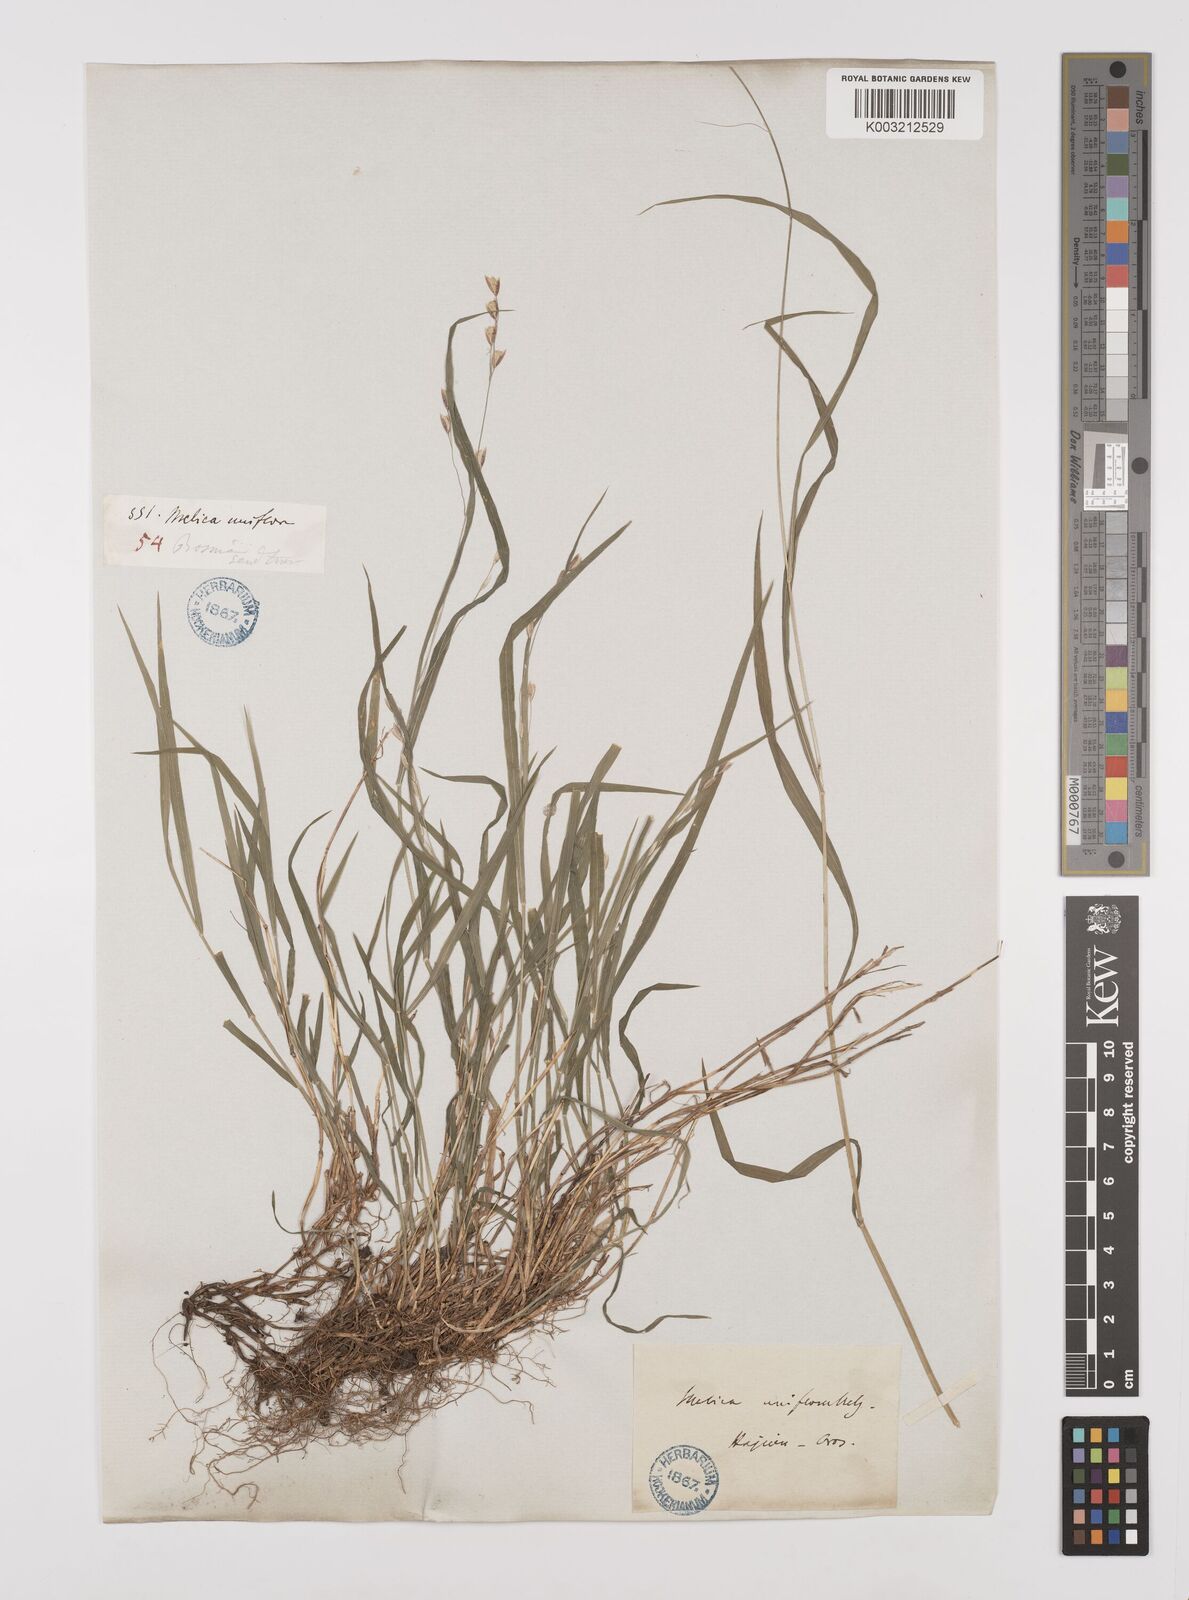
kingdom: Plantae
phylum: Tracheophyta
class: Liliopsida
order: Poales
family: Poaceae
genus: Melica
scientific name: Melica uniflora
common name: Wood melick
